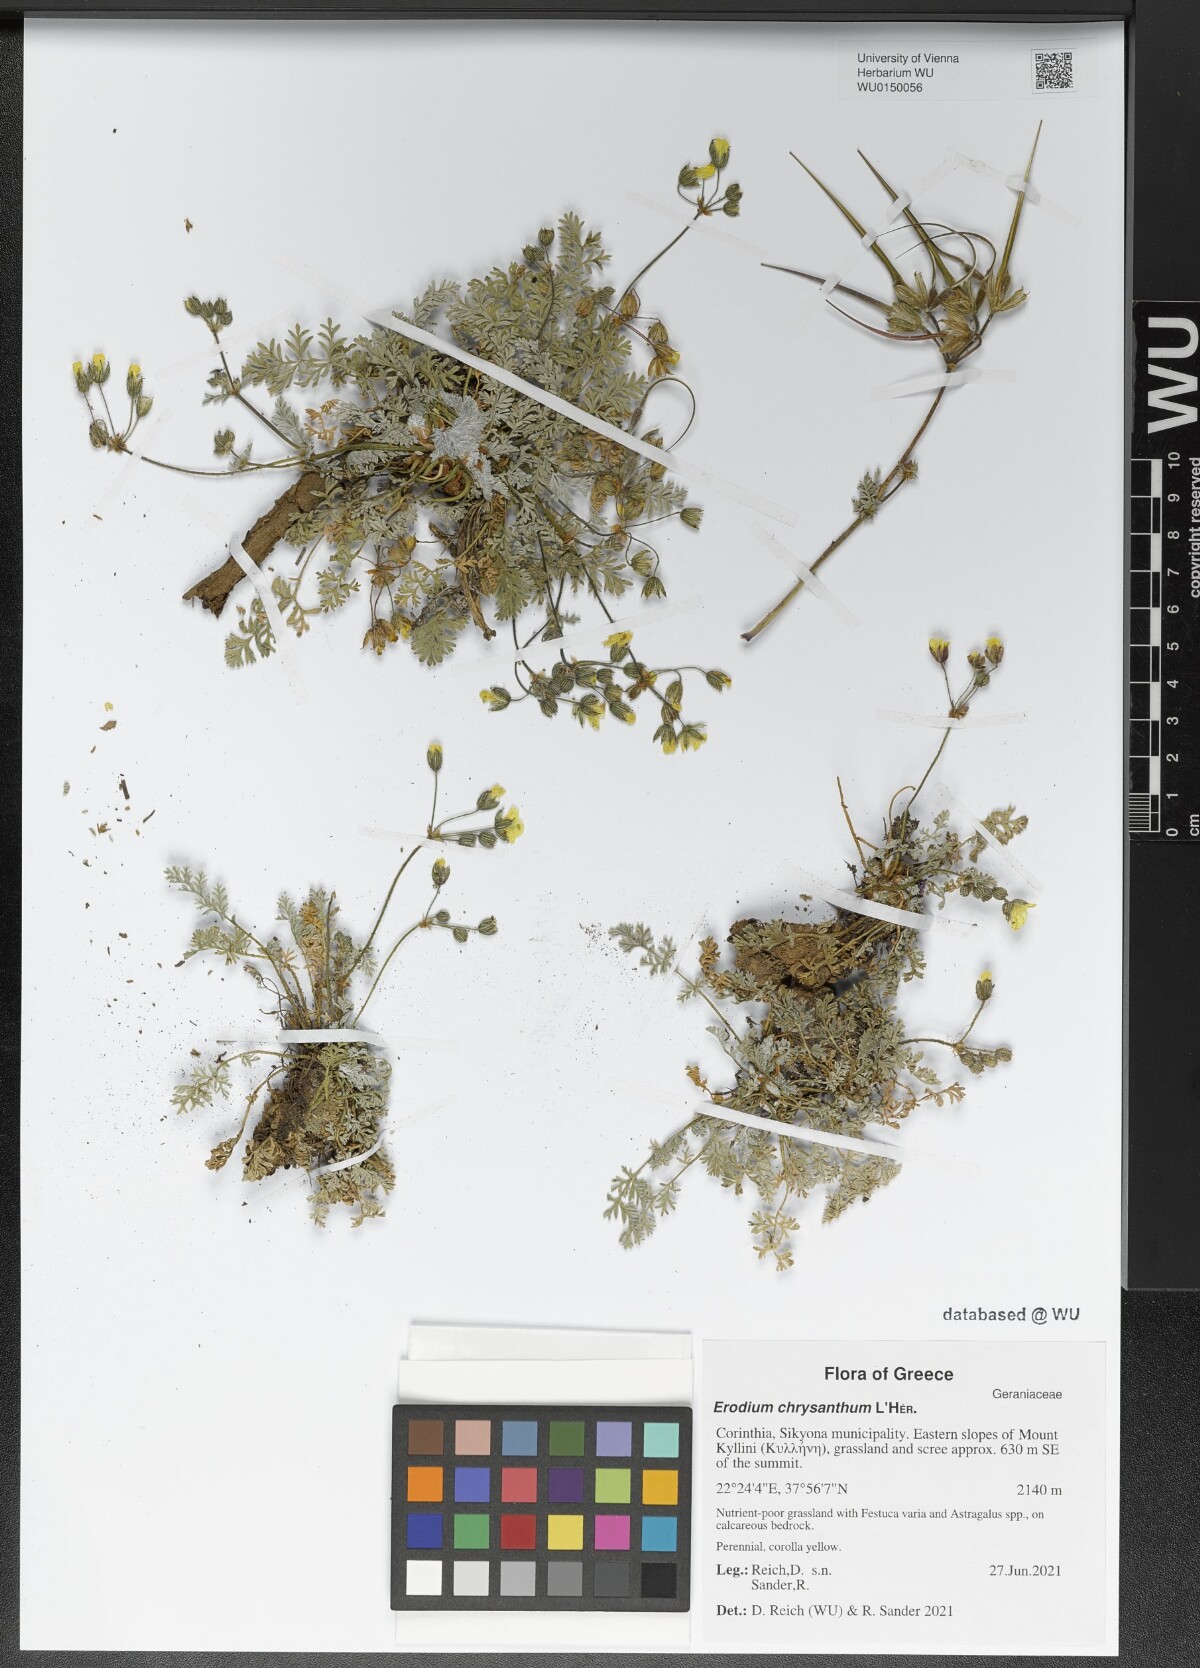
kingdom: Plantae
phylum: Tracheophyta
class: Magnoliopsida
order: Geraniales
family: Geraniaceae
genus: Erodium
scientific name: Erodium chrysanthum
